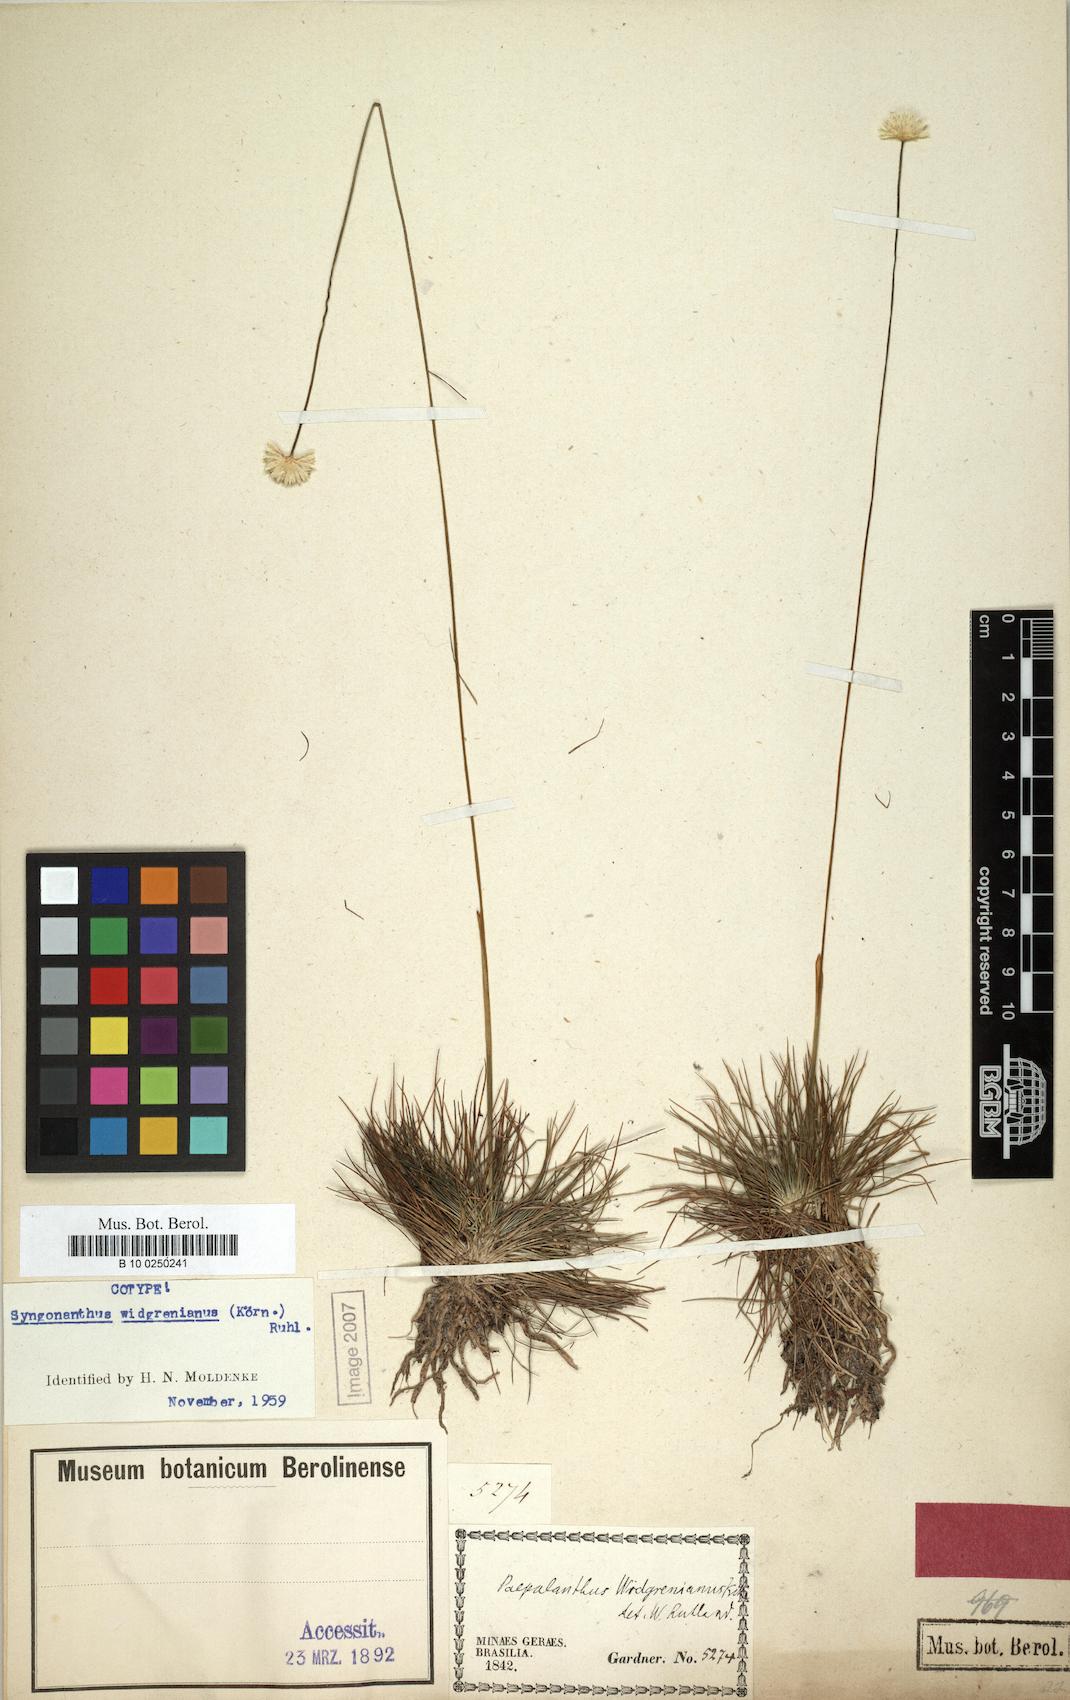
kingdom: Plantae
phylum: Tracheophyta
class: Liliopsida
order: Poales
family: Eriocaulaceae
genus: Syngonanthus
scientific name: Syngonanthus widgrenianus
